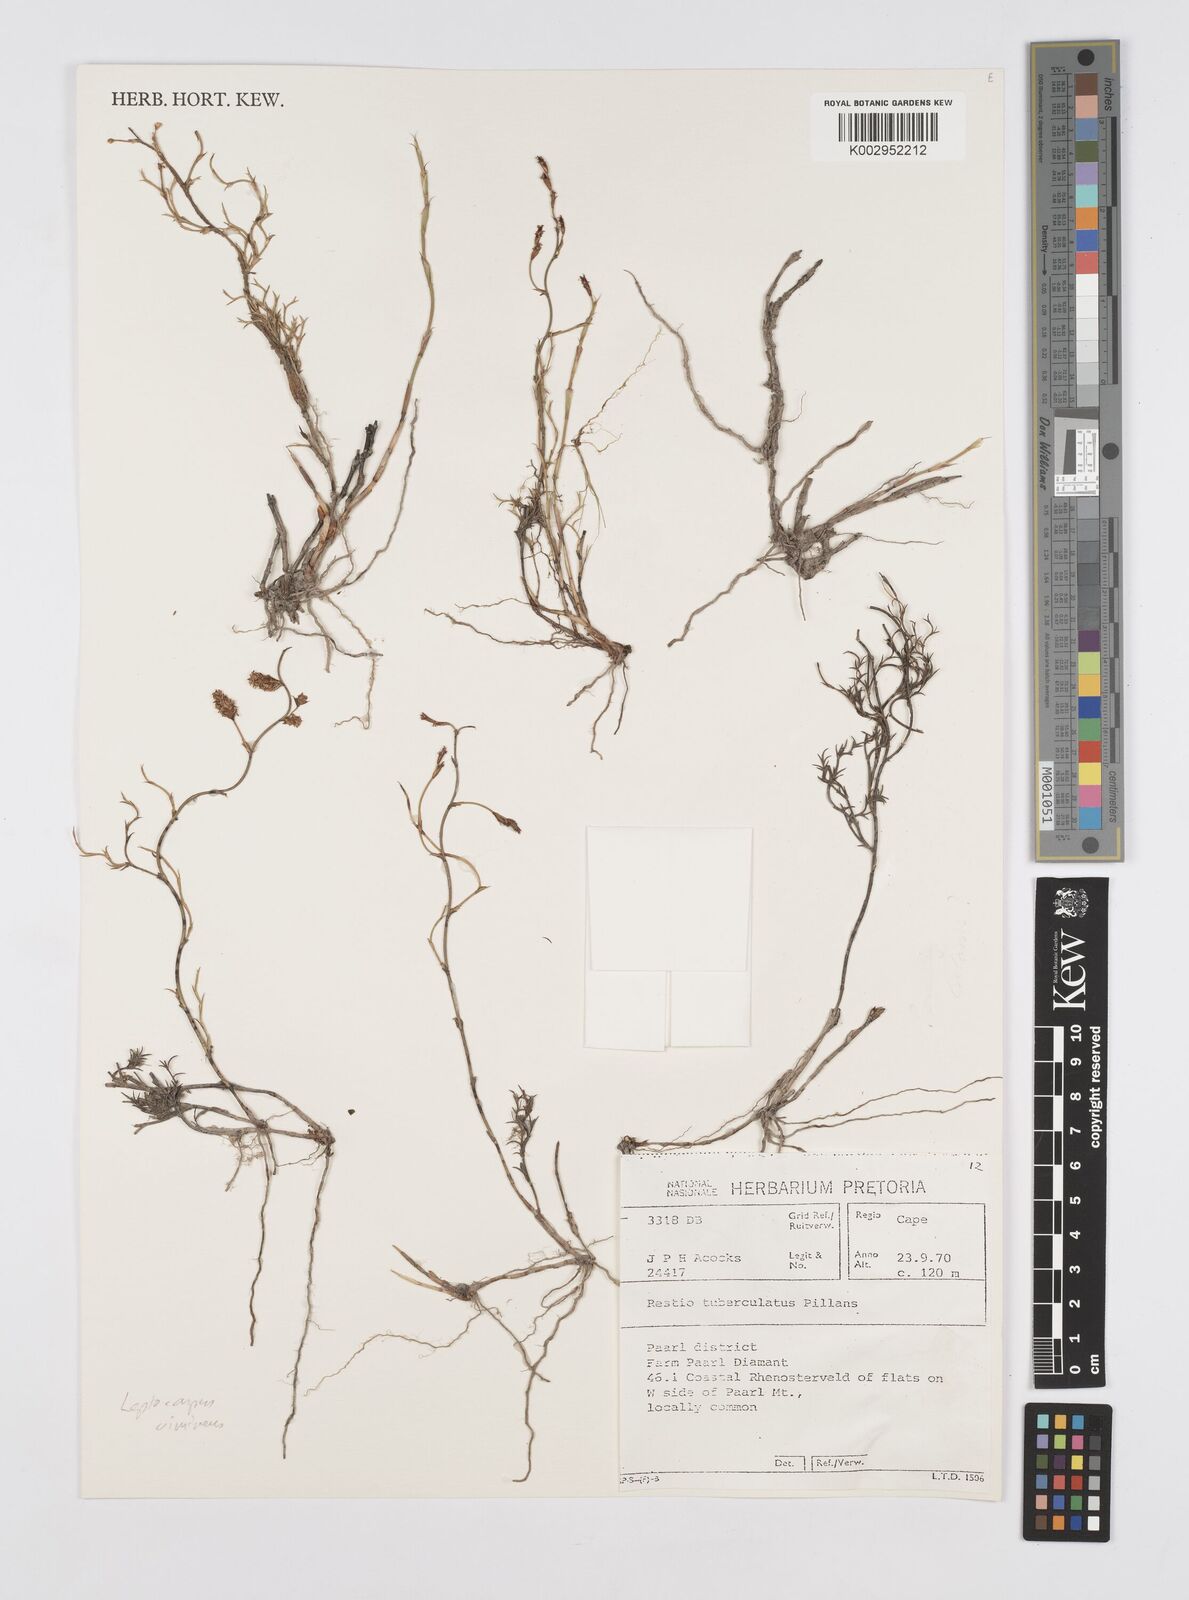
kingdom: Plantae
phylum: Tracheophyta
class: Liliopsida
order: Poales
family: Restionaceae
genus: Restio
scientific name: Restio vimineus
